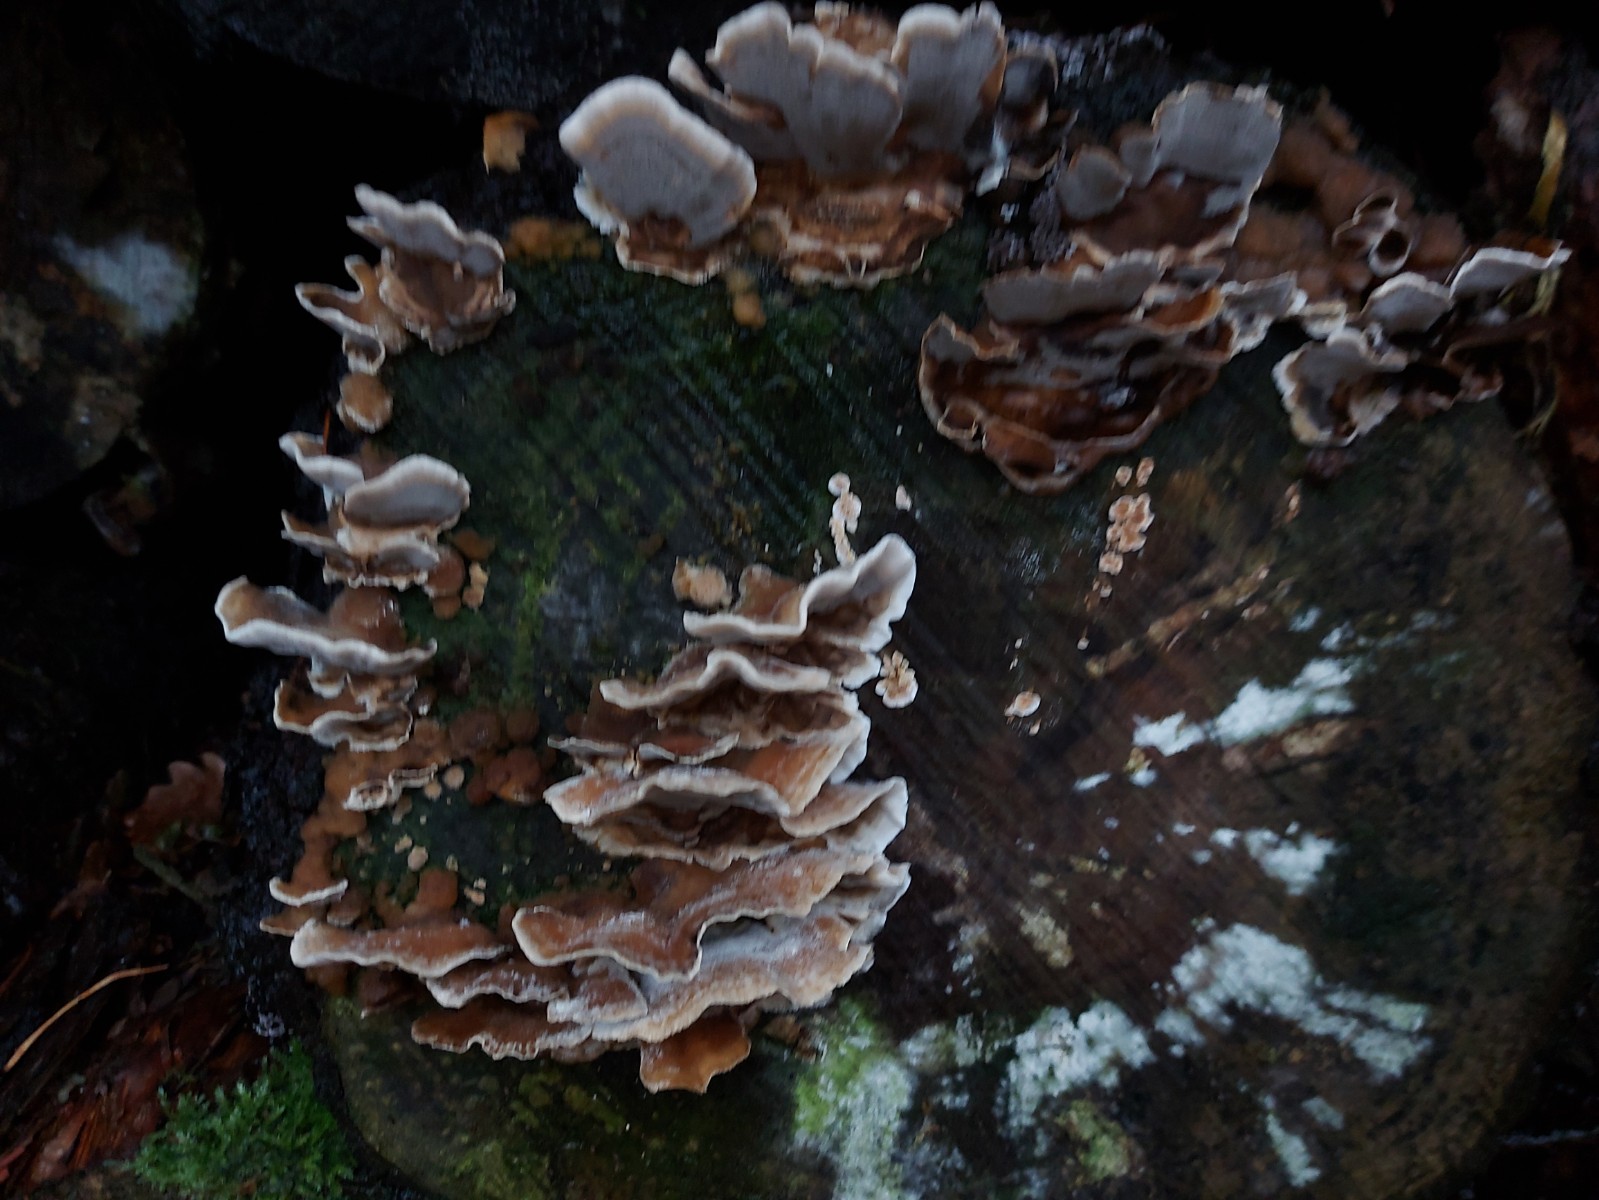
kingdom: Fungi
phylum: Basidiomycota
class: Agaricomycetes
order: Polyporales
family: Phanerochaetaceae
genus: Bjerkandera
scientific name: Bjerkandera adusta
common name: sveden sodporesvamp
